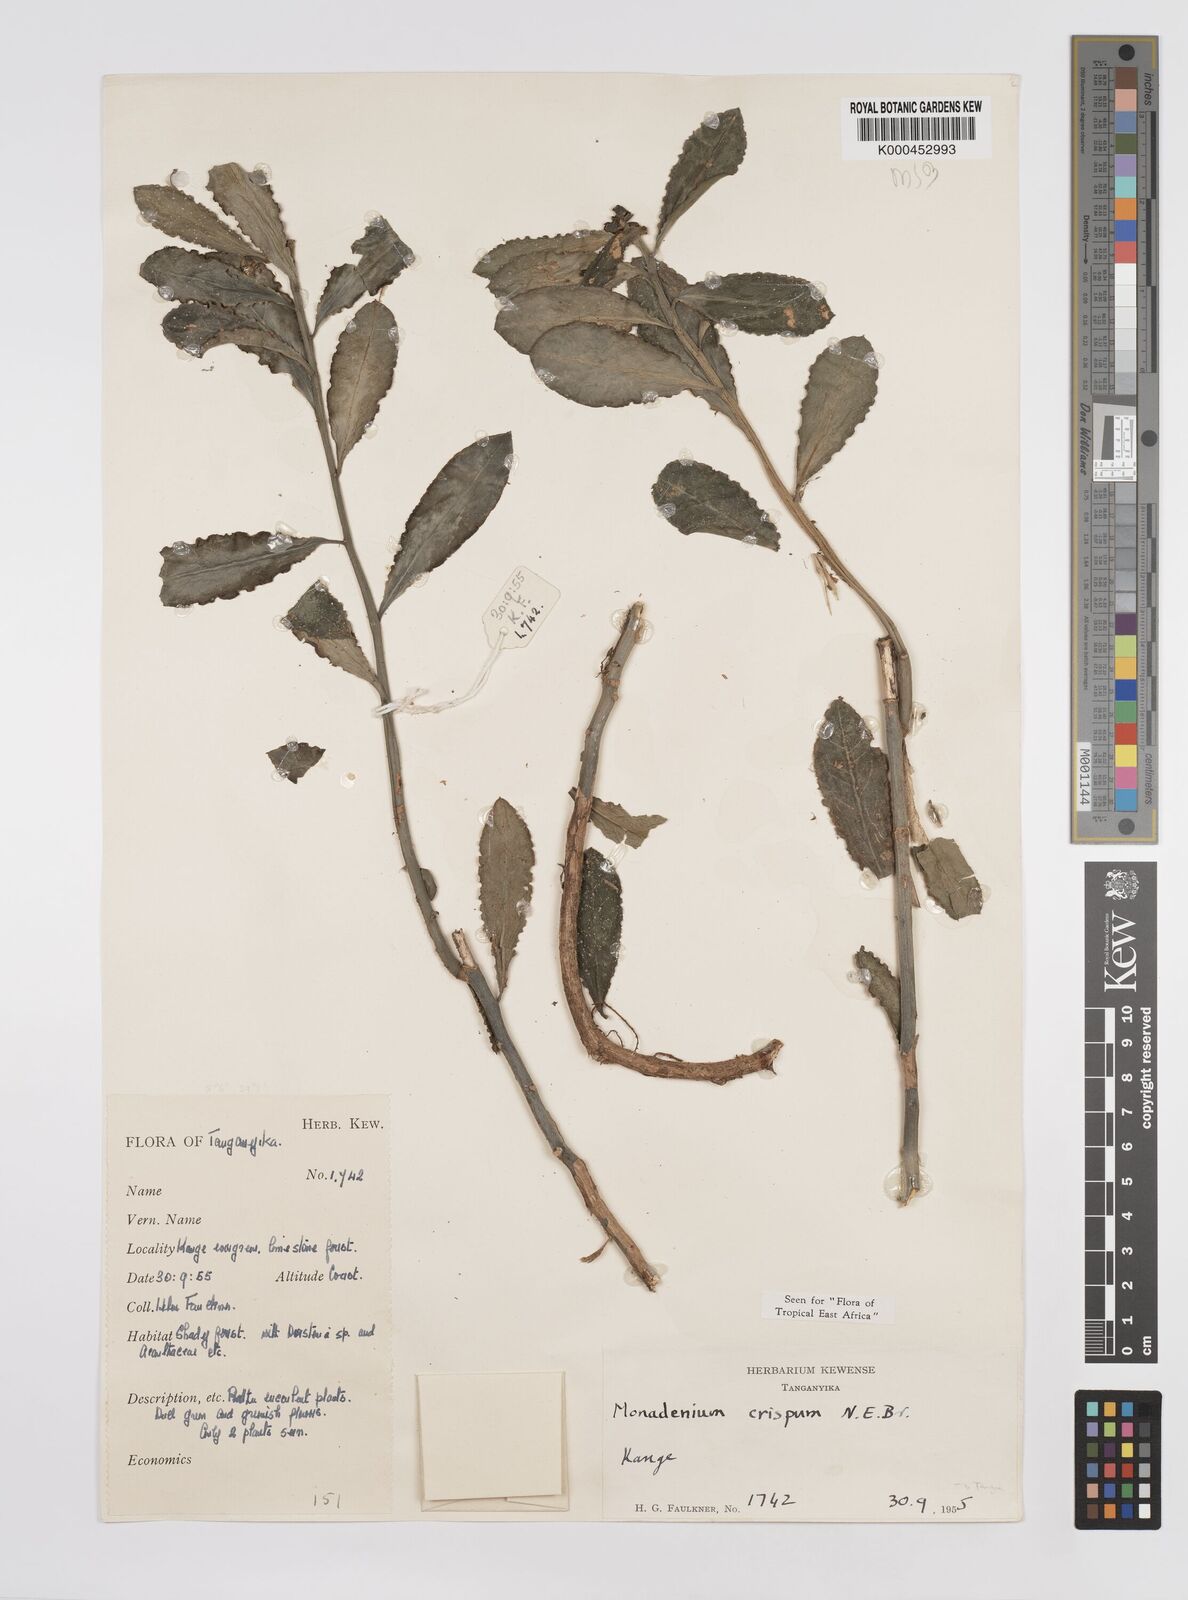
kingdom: Plantae
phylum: Tracheophyta
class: Magnoliopsida
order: Malpighiales
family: Euphorbiaceae
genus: Euphorbia
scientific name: Euphorbia neocrispa
